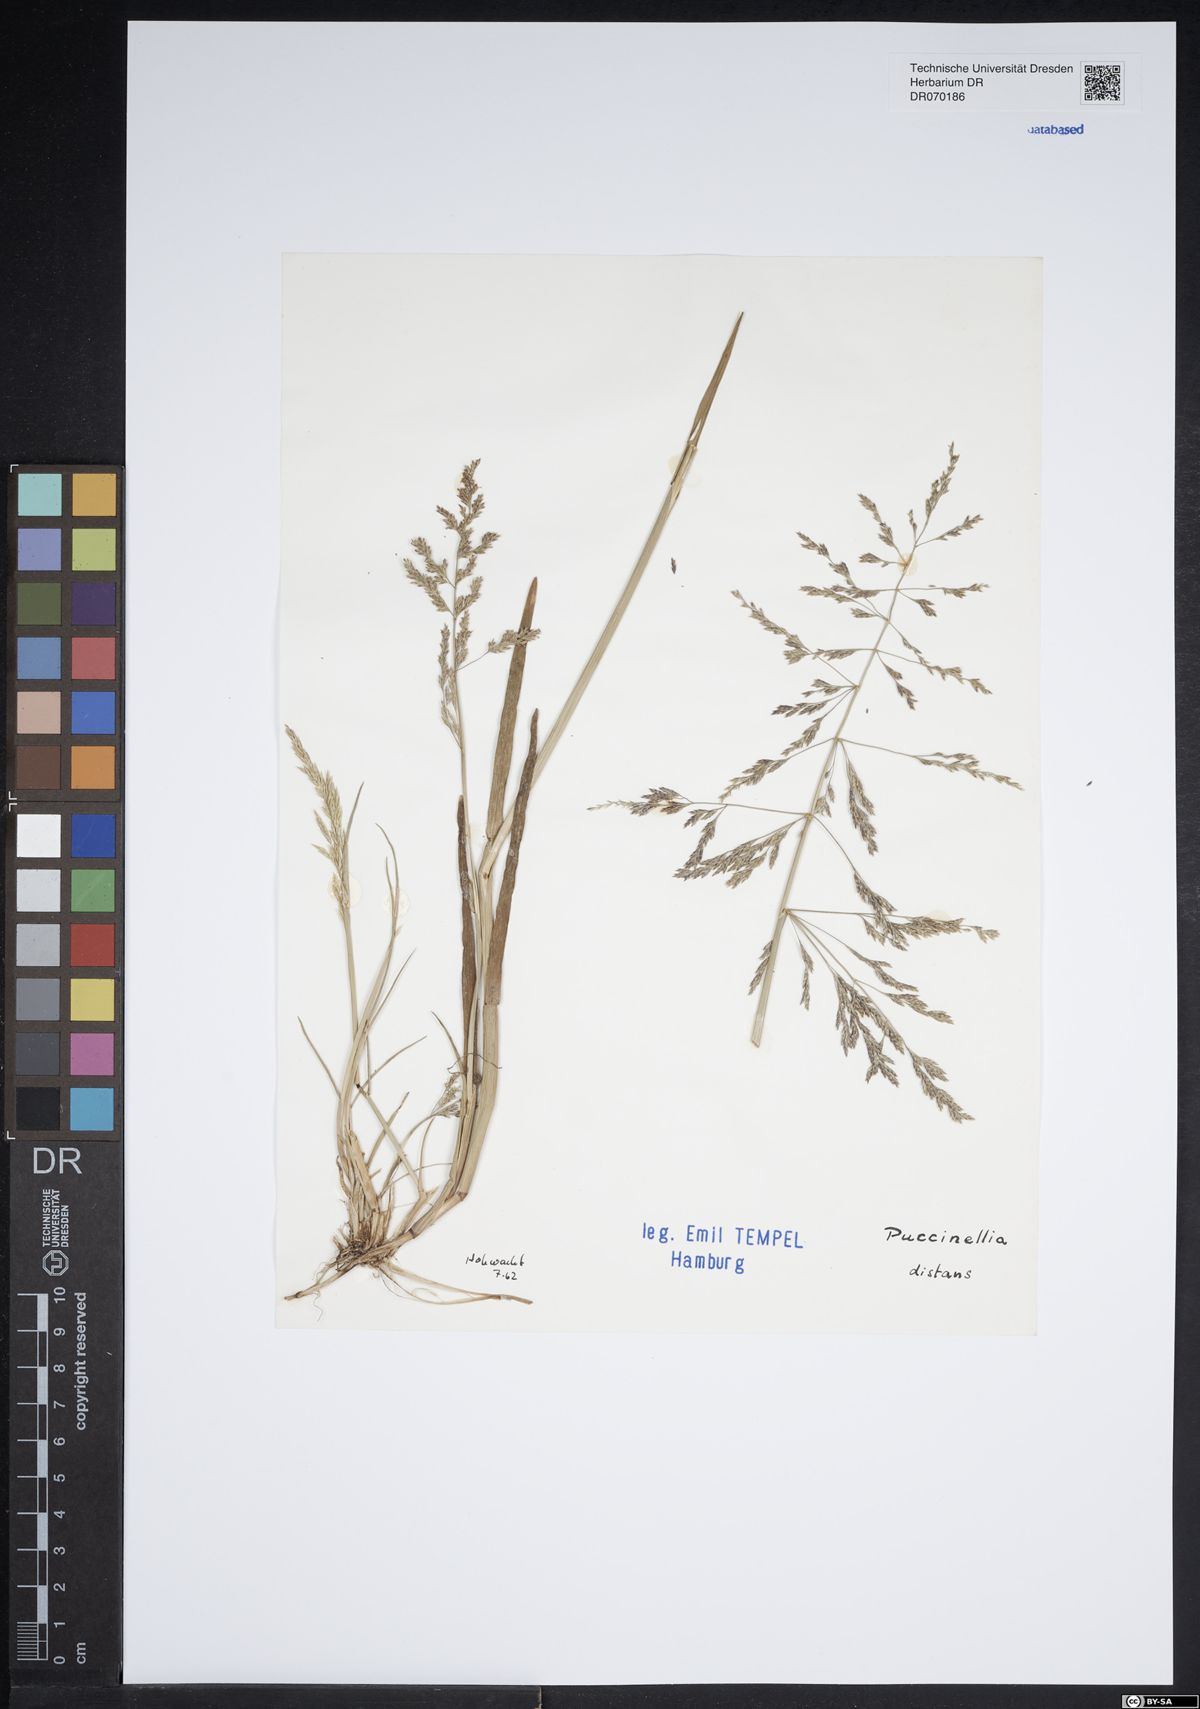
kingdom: Plantae
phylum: Tracheophyta
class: Liliopsida
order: Poales
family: Poaceae
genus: Puccinellia
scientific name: Puccinellia distans
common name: Weeping alkaligrass
